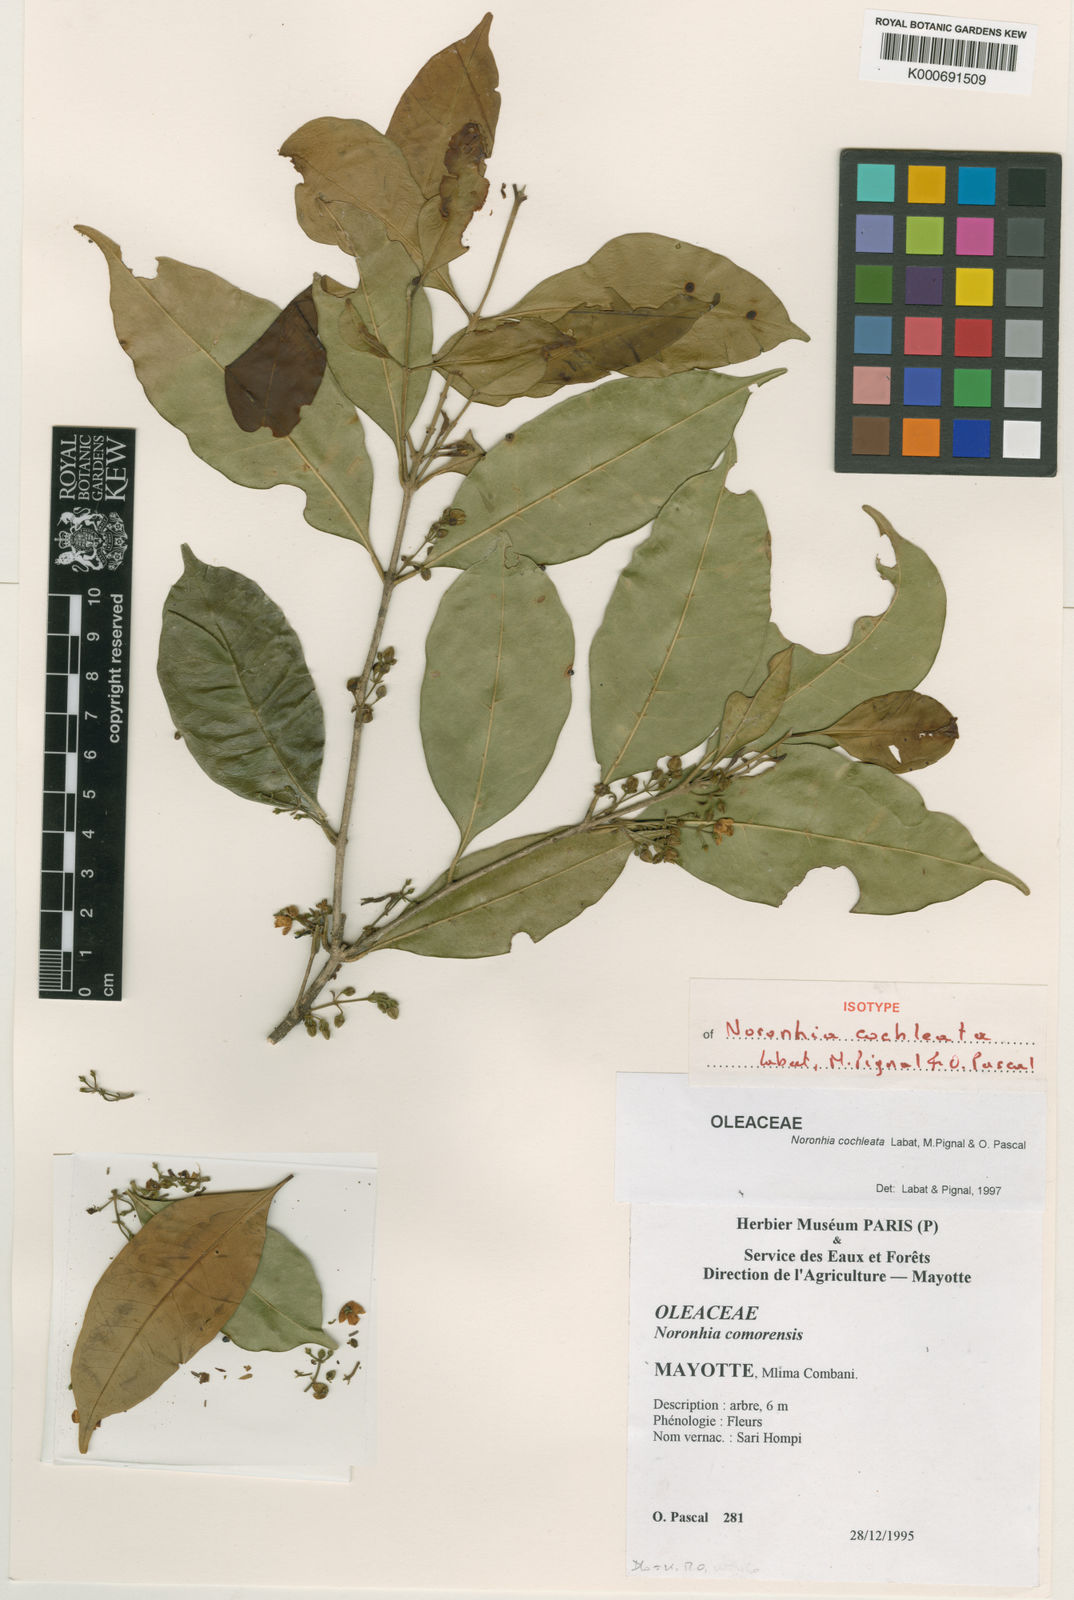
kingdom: Plantae
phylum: Tracheophyta
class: Magnoliopsida
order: Lamiales
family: Oleaceae
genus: Noronhia
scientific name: Noronhia cochleata
